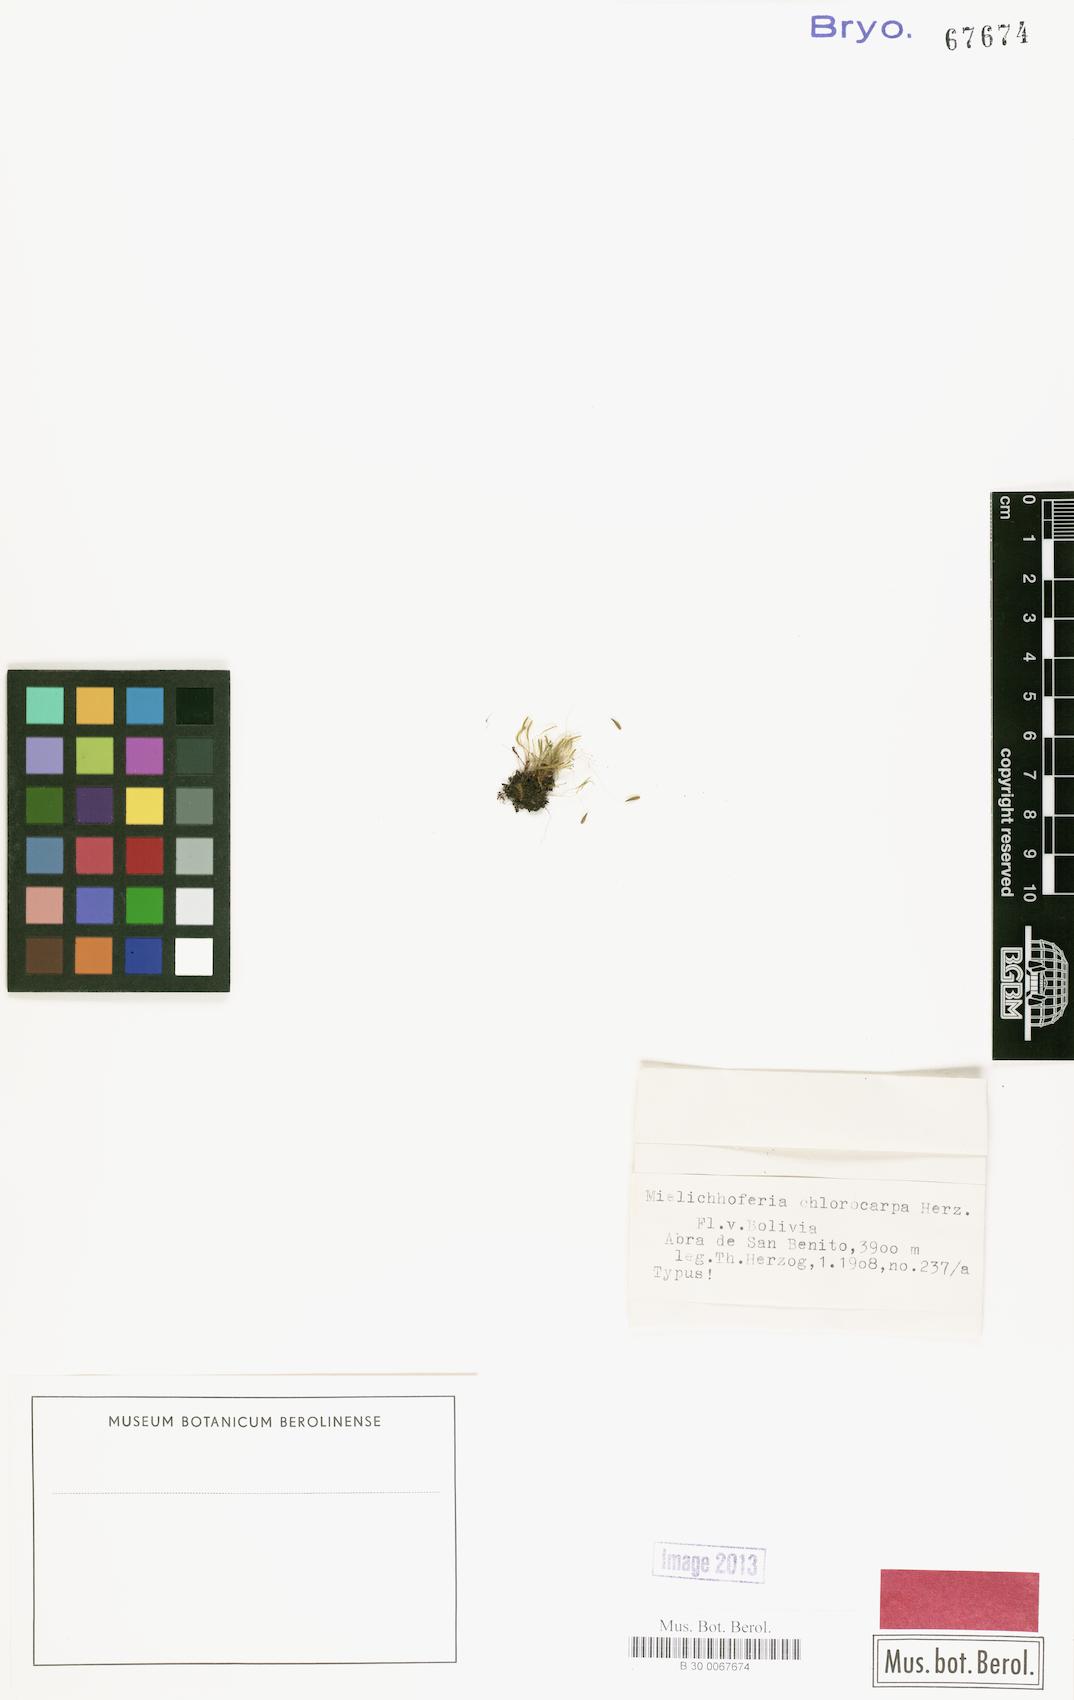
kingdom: Plantae
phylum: Bryophyta
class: Bryopsida
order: Bryales
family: Mniaceae
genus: Mielichhoferia
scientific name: Mielichhoferia chlorocarpa
